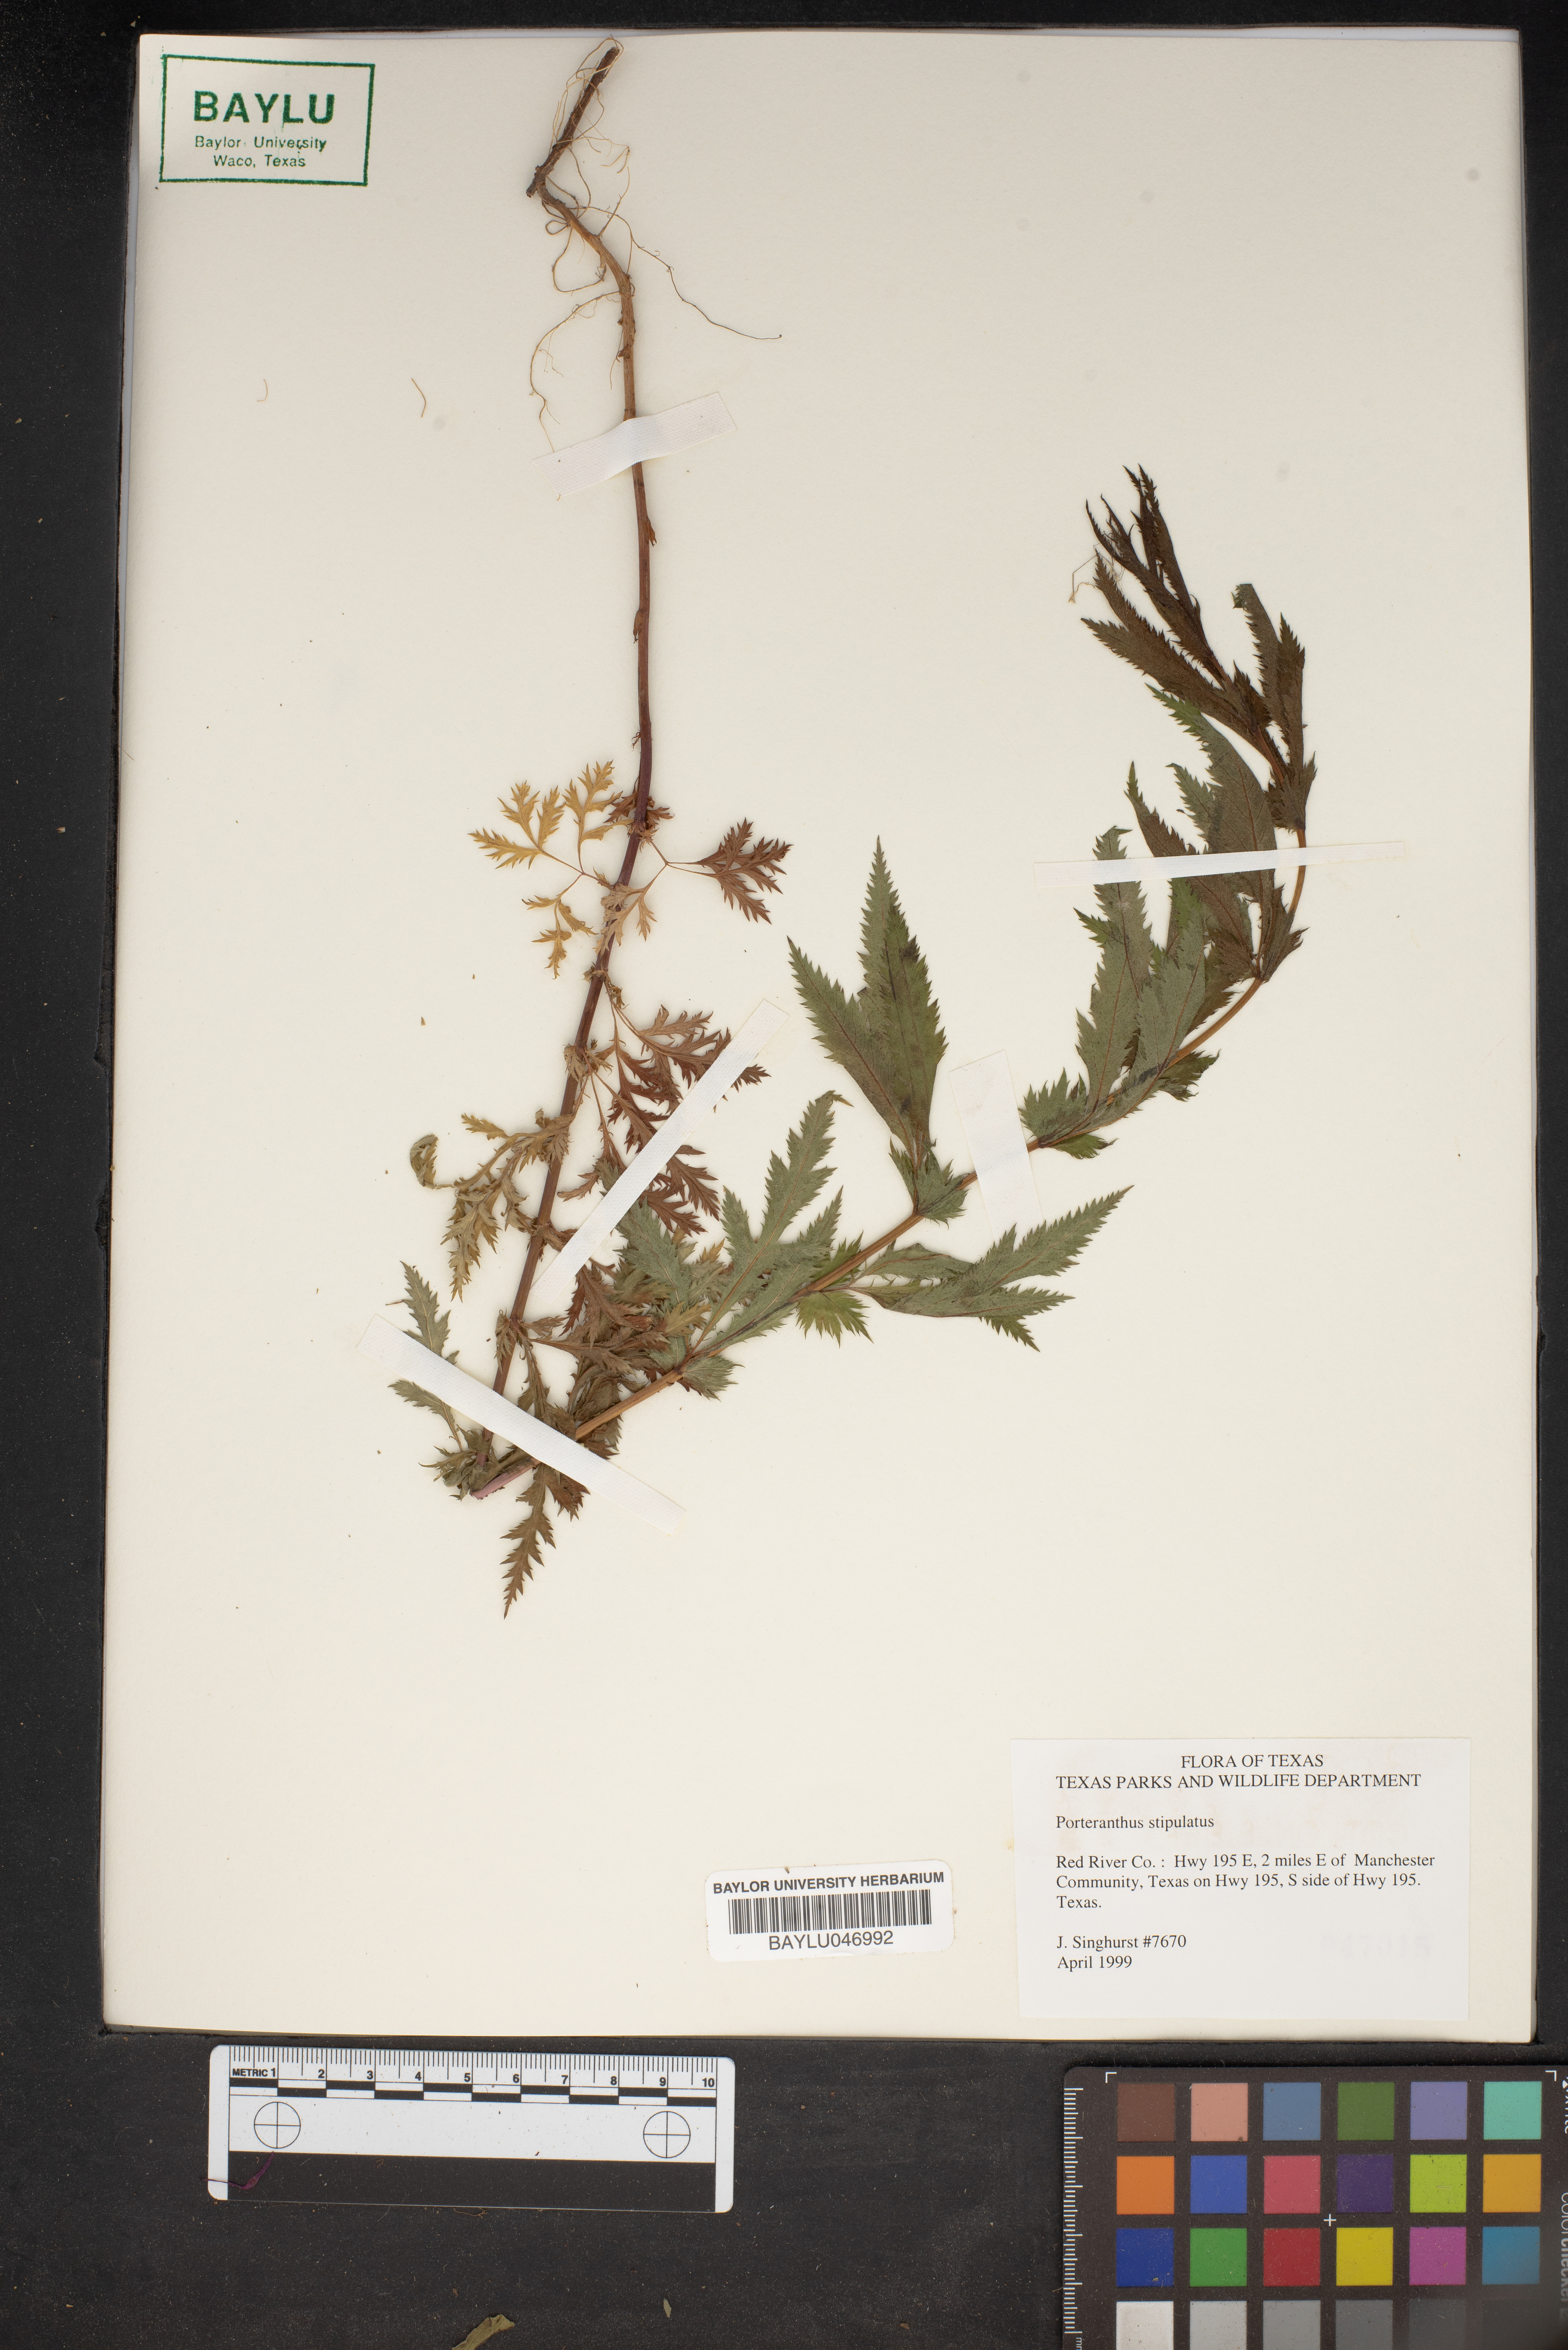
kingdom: Plantae
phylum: Tracheophyta
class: Magnoliopsida
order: Rosales
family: Rosaceae
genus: Gillenia
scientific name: Gillenia stipulata
